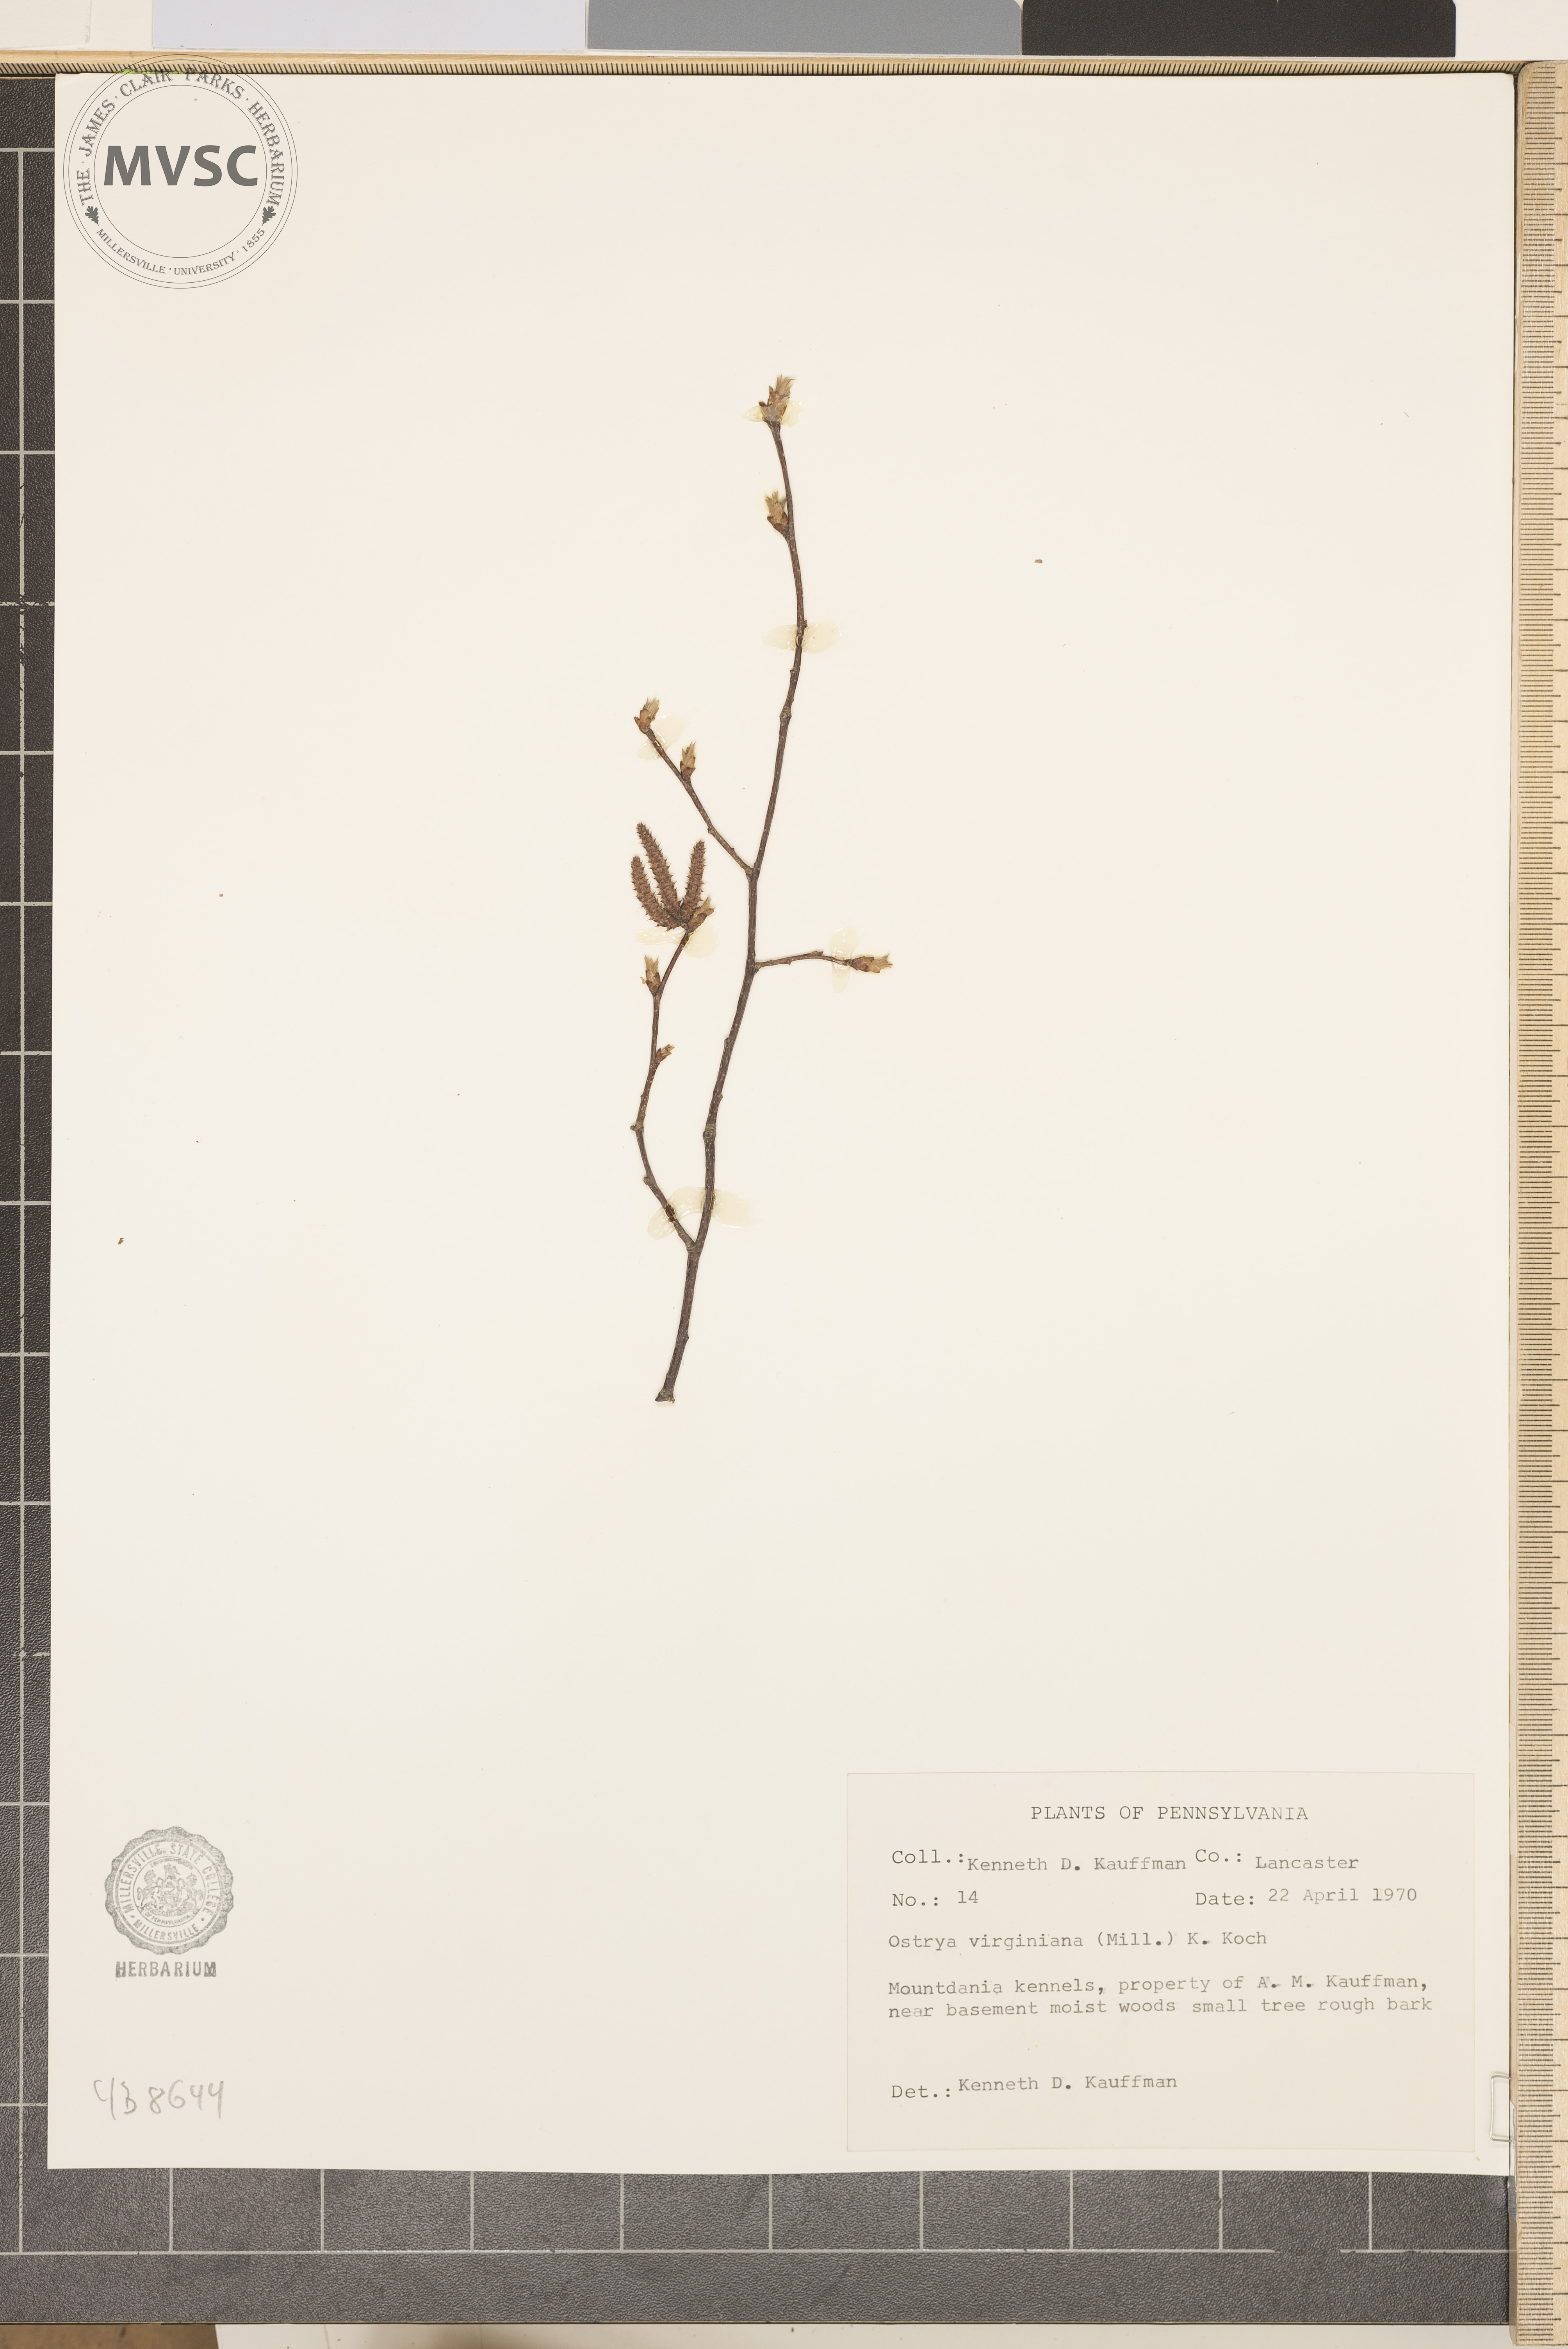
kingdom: Plantae
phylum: Tracheophyta
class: Magnoliopsida
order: Fagales
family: Betulaceae
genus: Ostrya
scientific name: Ostrya virginiana
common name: Ironwood
